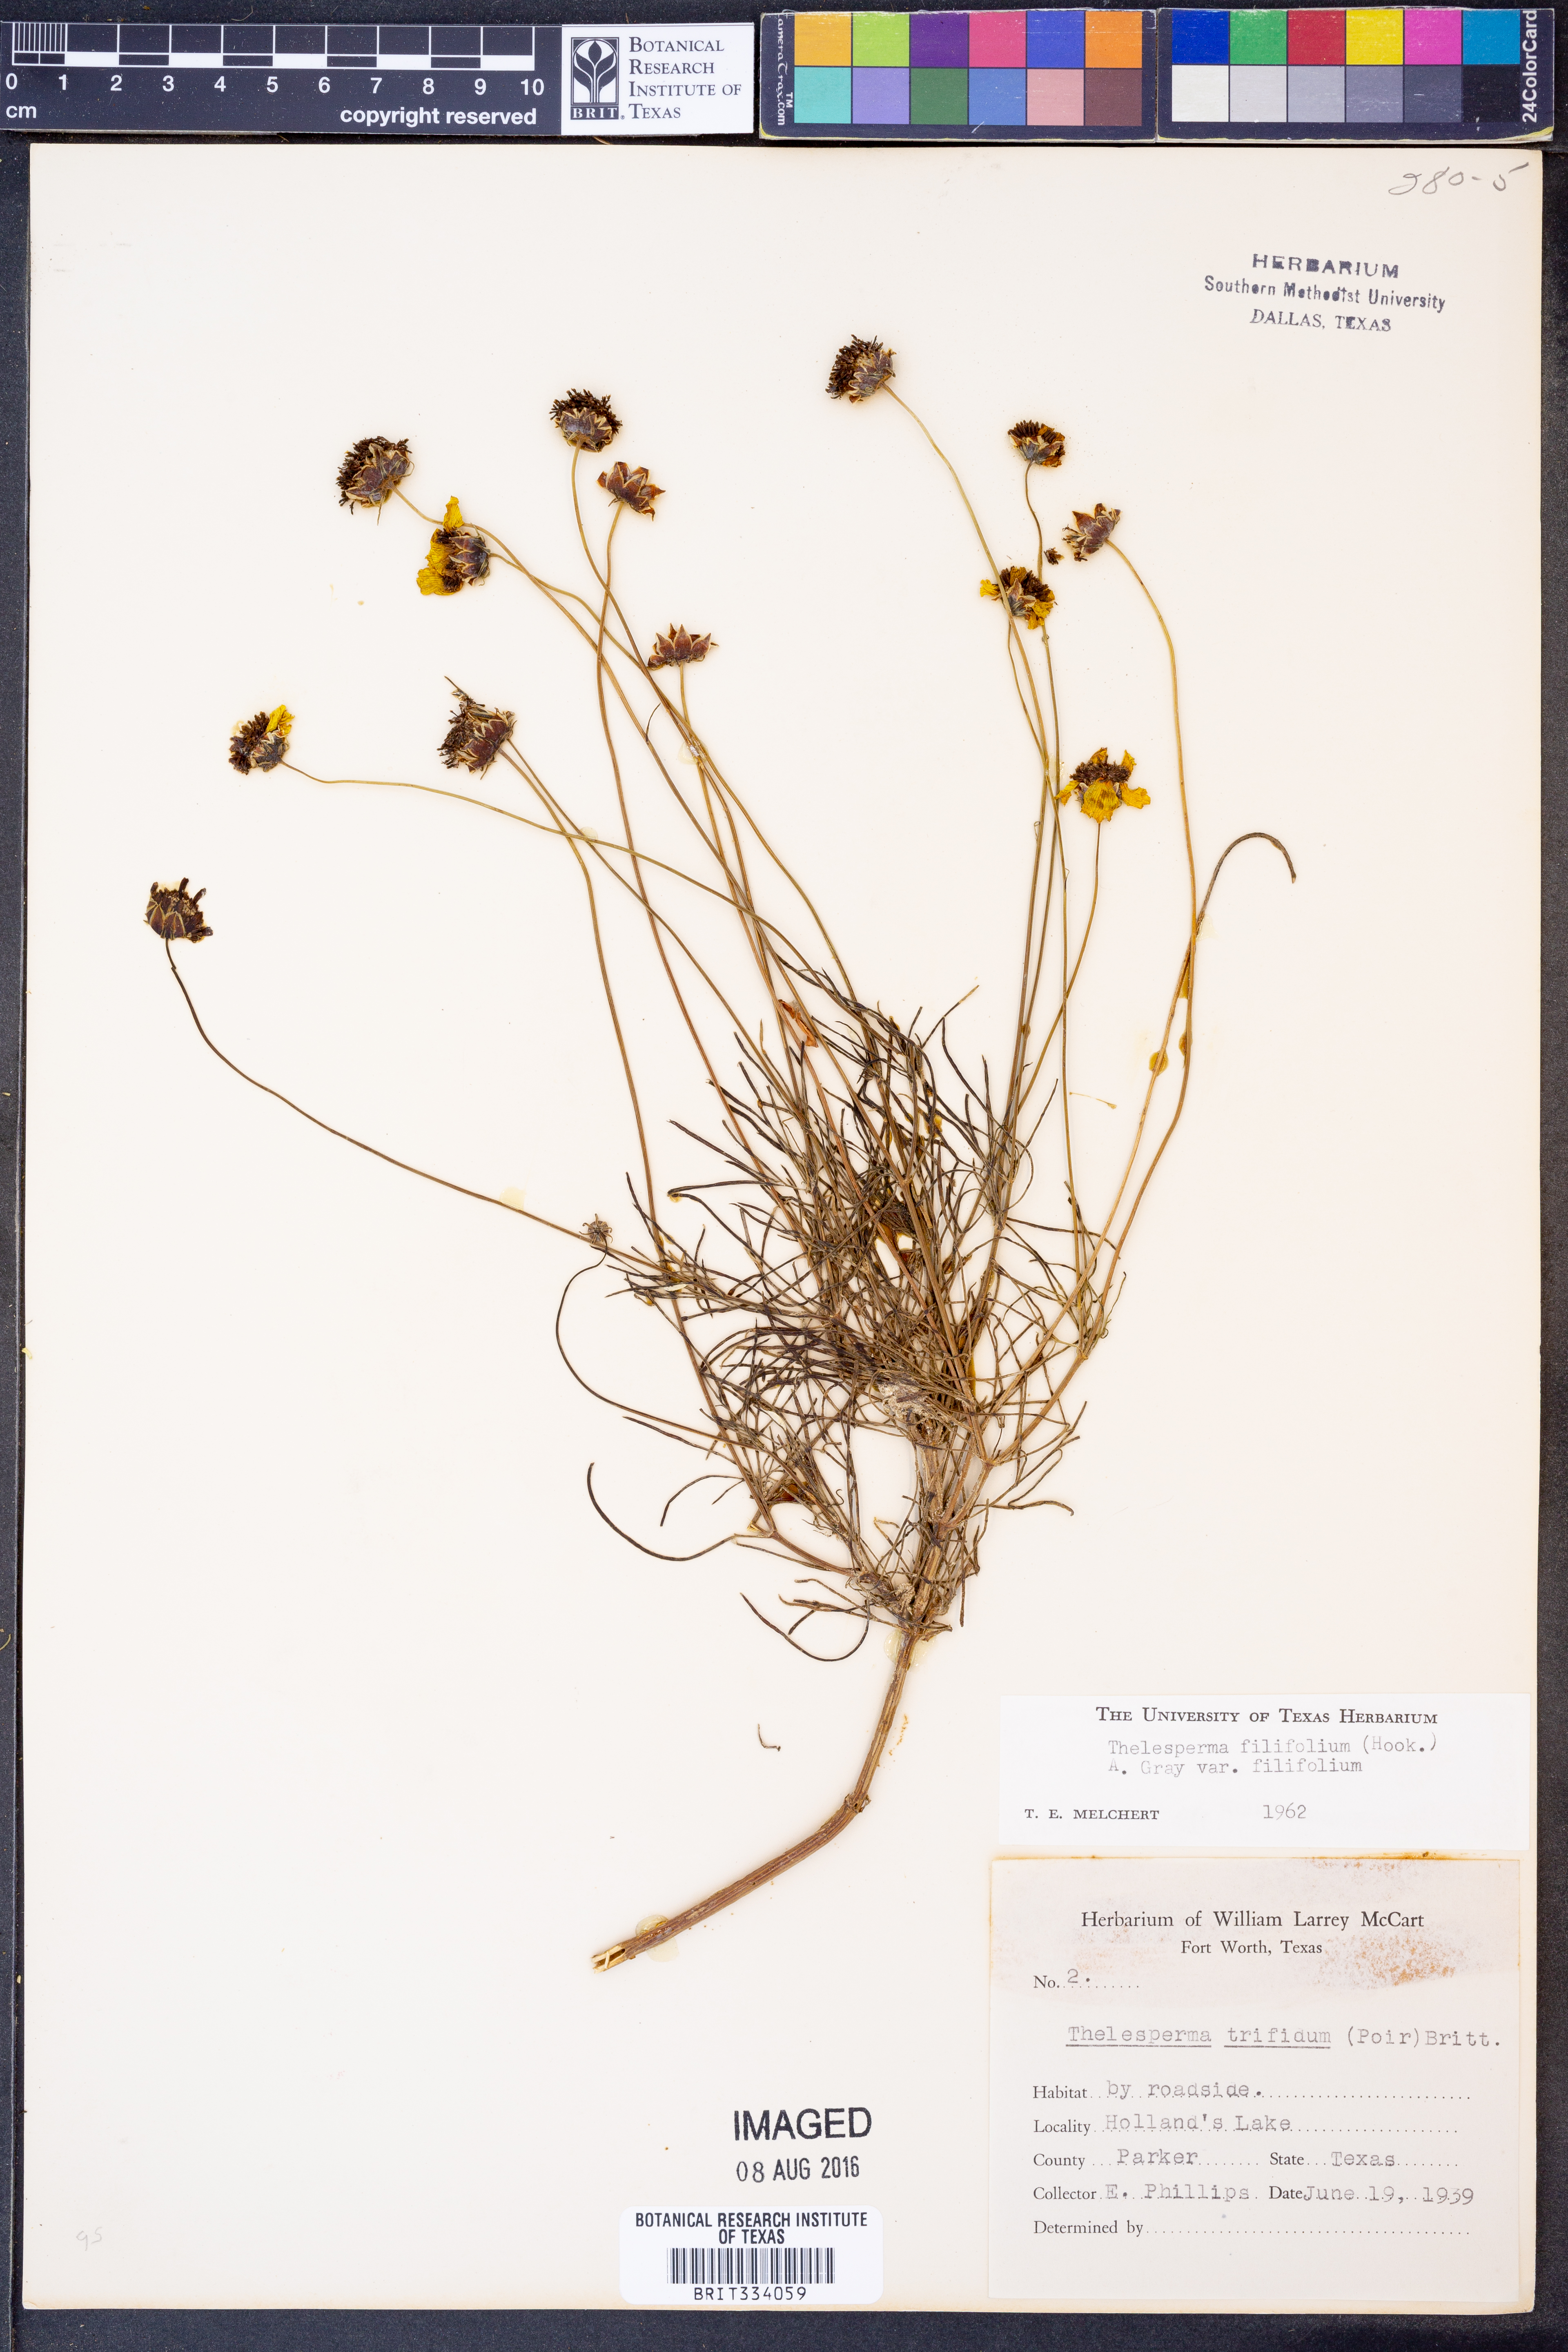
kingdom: Plantae
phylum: Tracheophyta
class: Magnoliopsida
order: Asterales
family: Asteraceae
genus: Thelesperma
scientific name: Thelesperma filifolium
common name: Stiff greenthread
